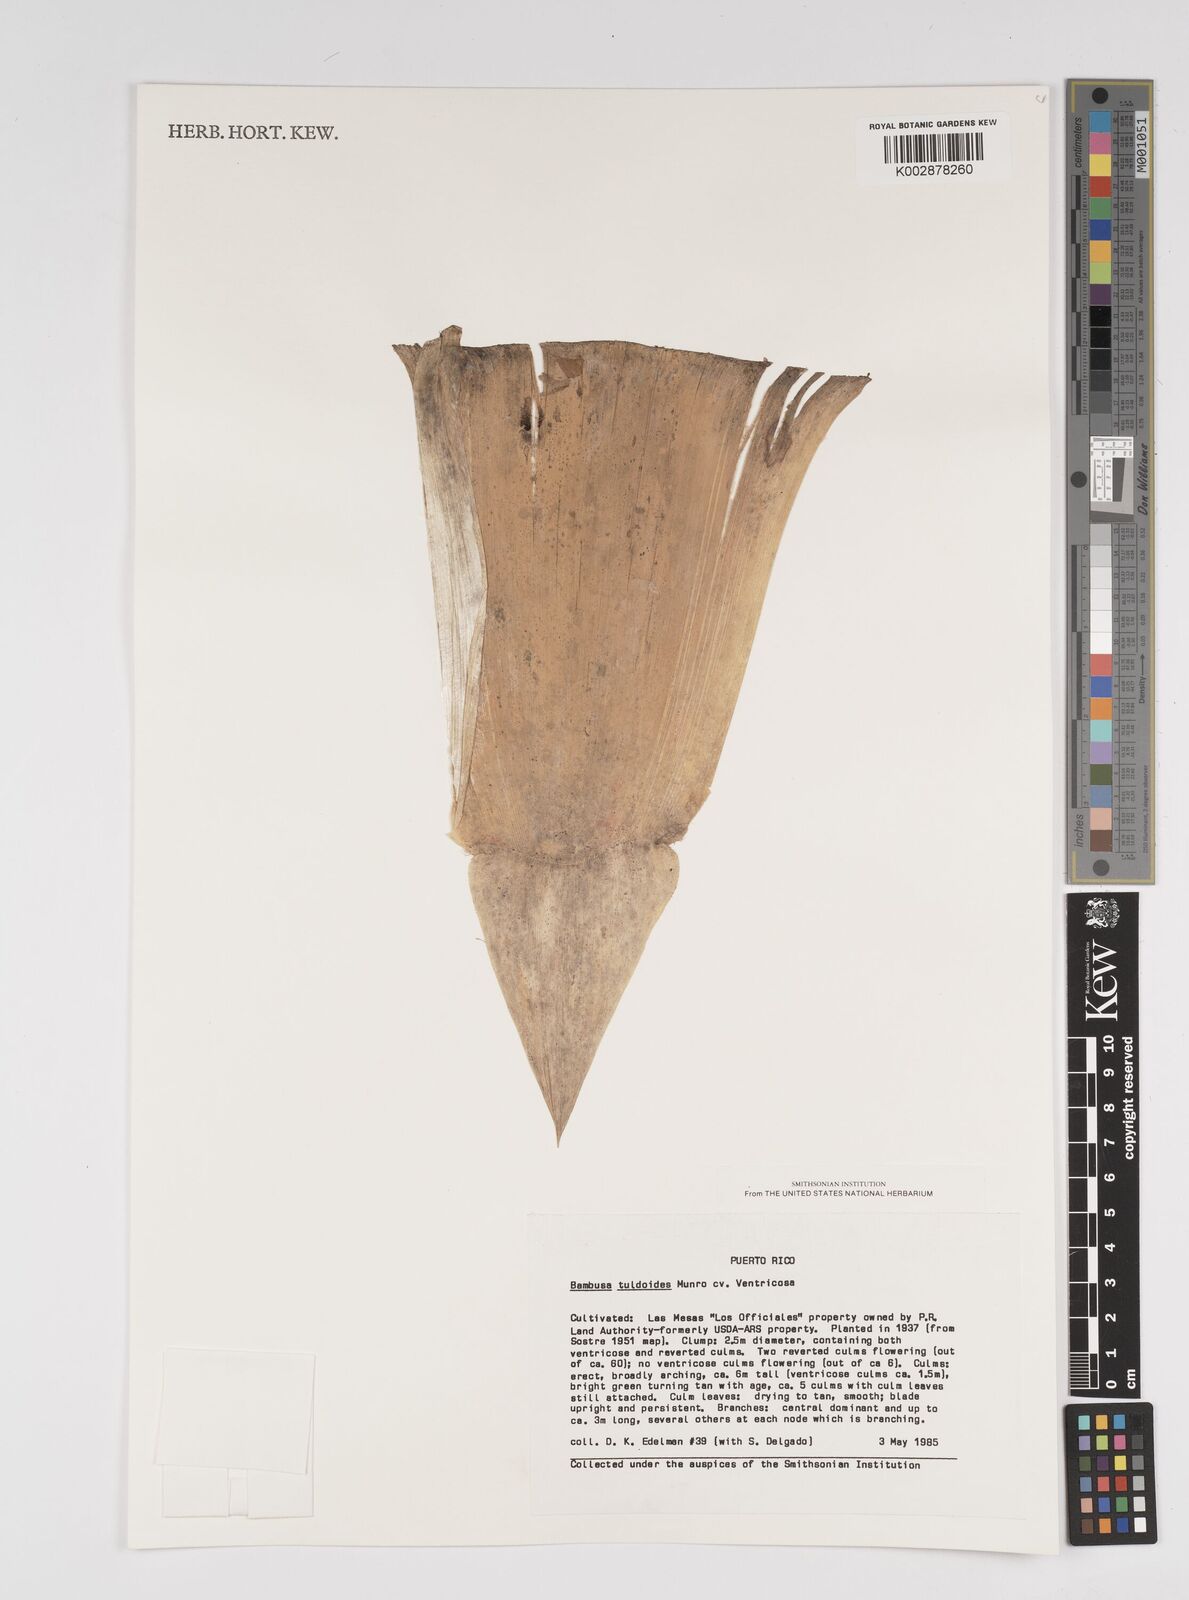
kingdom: Plantae
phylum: Tracheophyta
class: Liliopsida
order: Poales
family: Poaceae
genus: Bambusa
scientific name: Bambusa tuldoides
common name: Verdant bamboo
